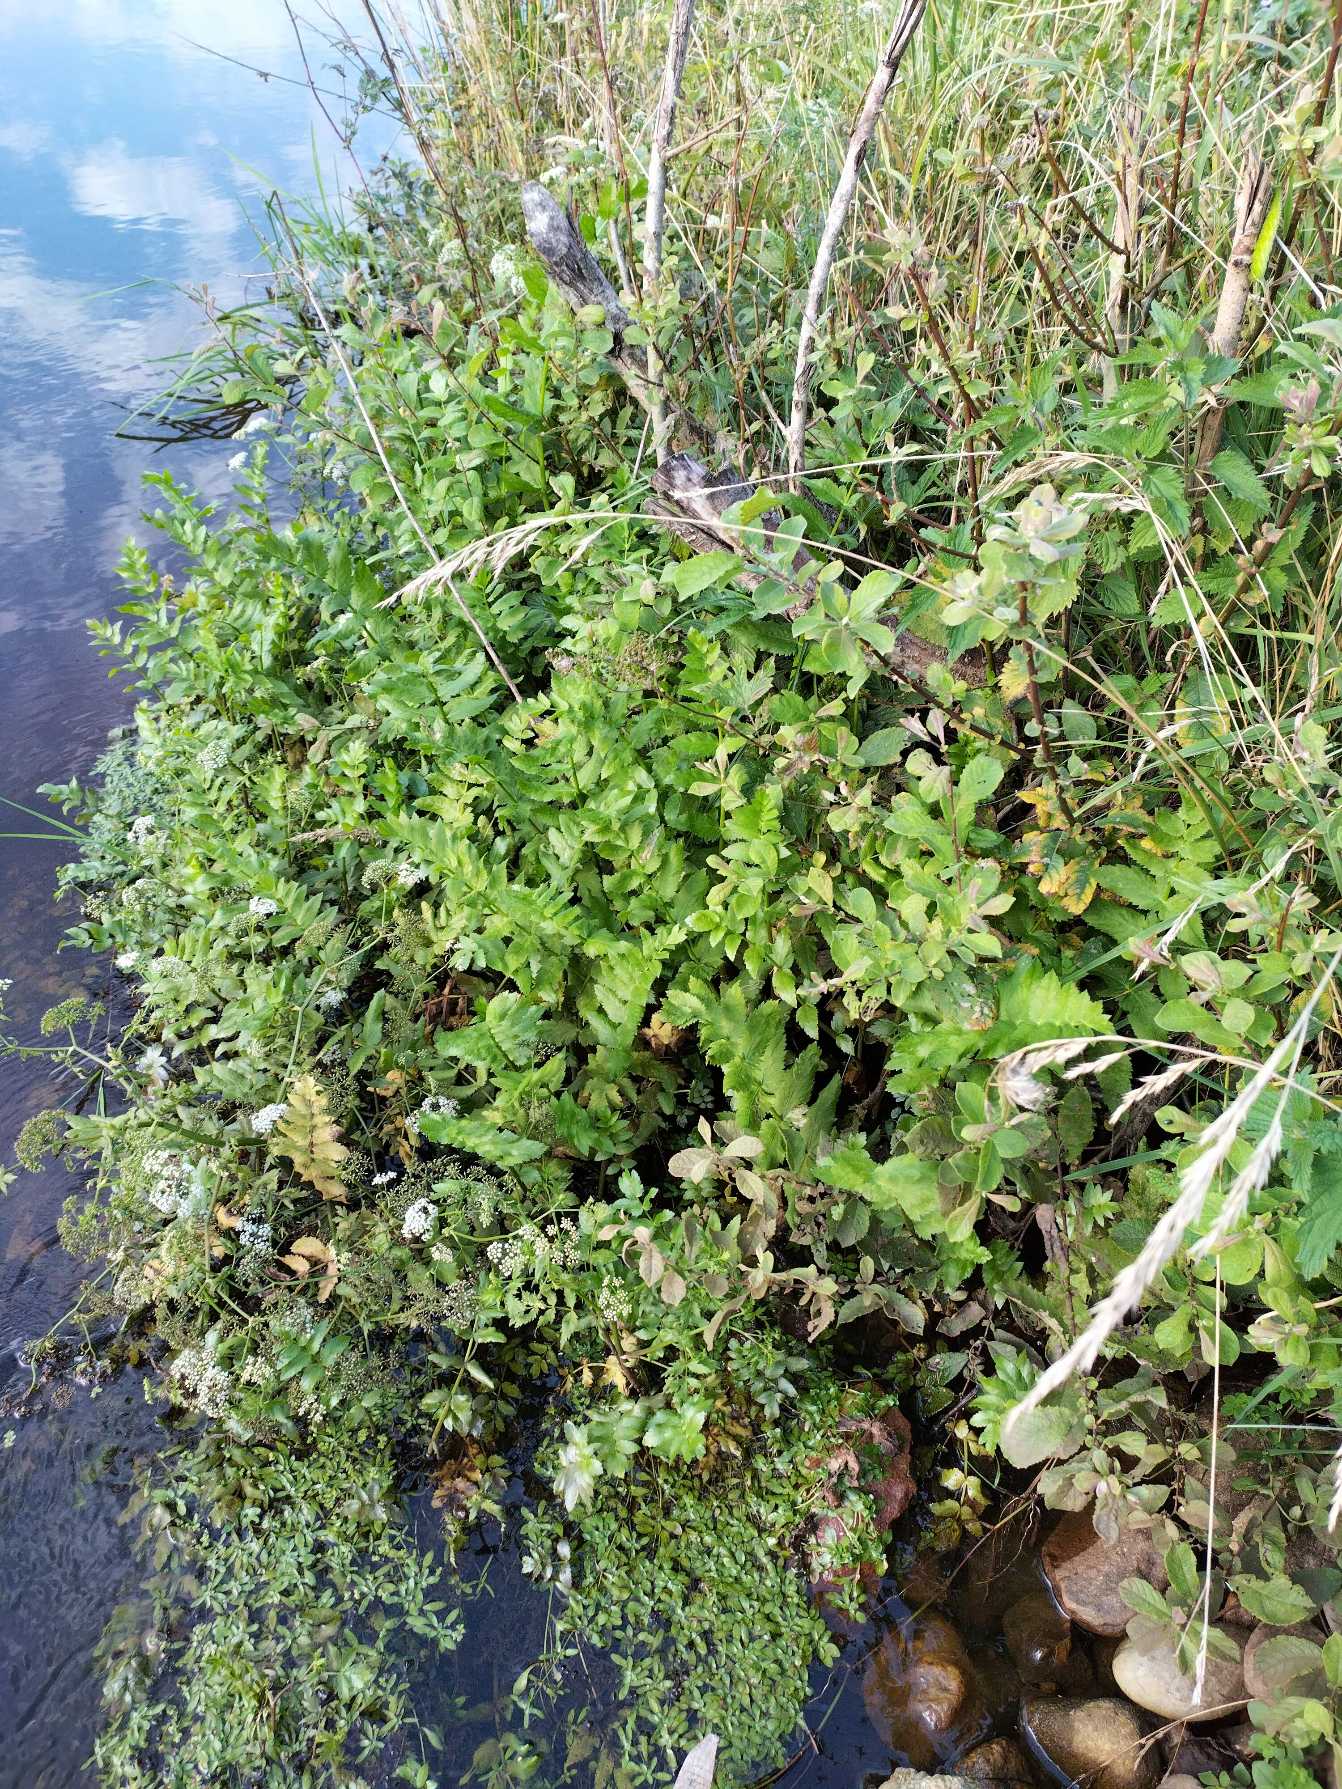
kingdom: Plantae
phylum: Tracheophyta
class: Magnoliopsida
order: Apiales
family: Apiaceae
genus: Berula
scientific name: Berula erecta
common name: Sideskærm
